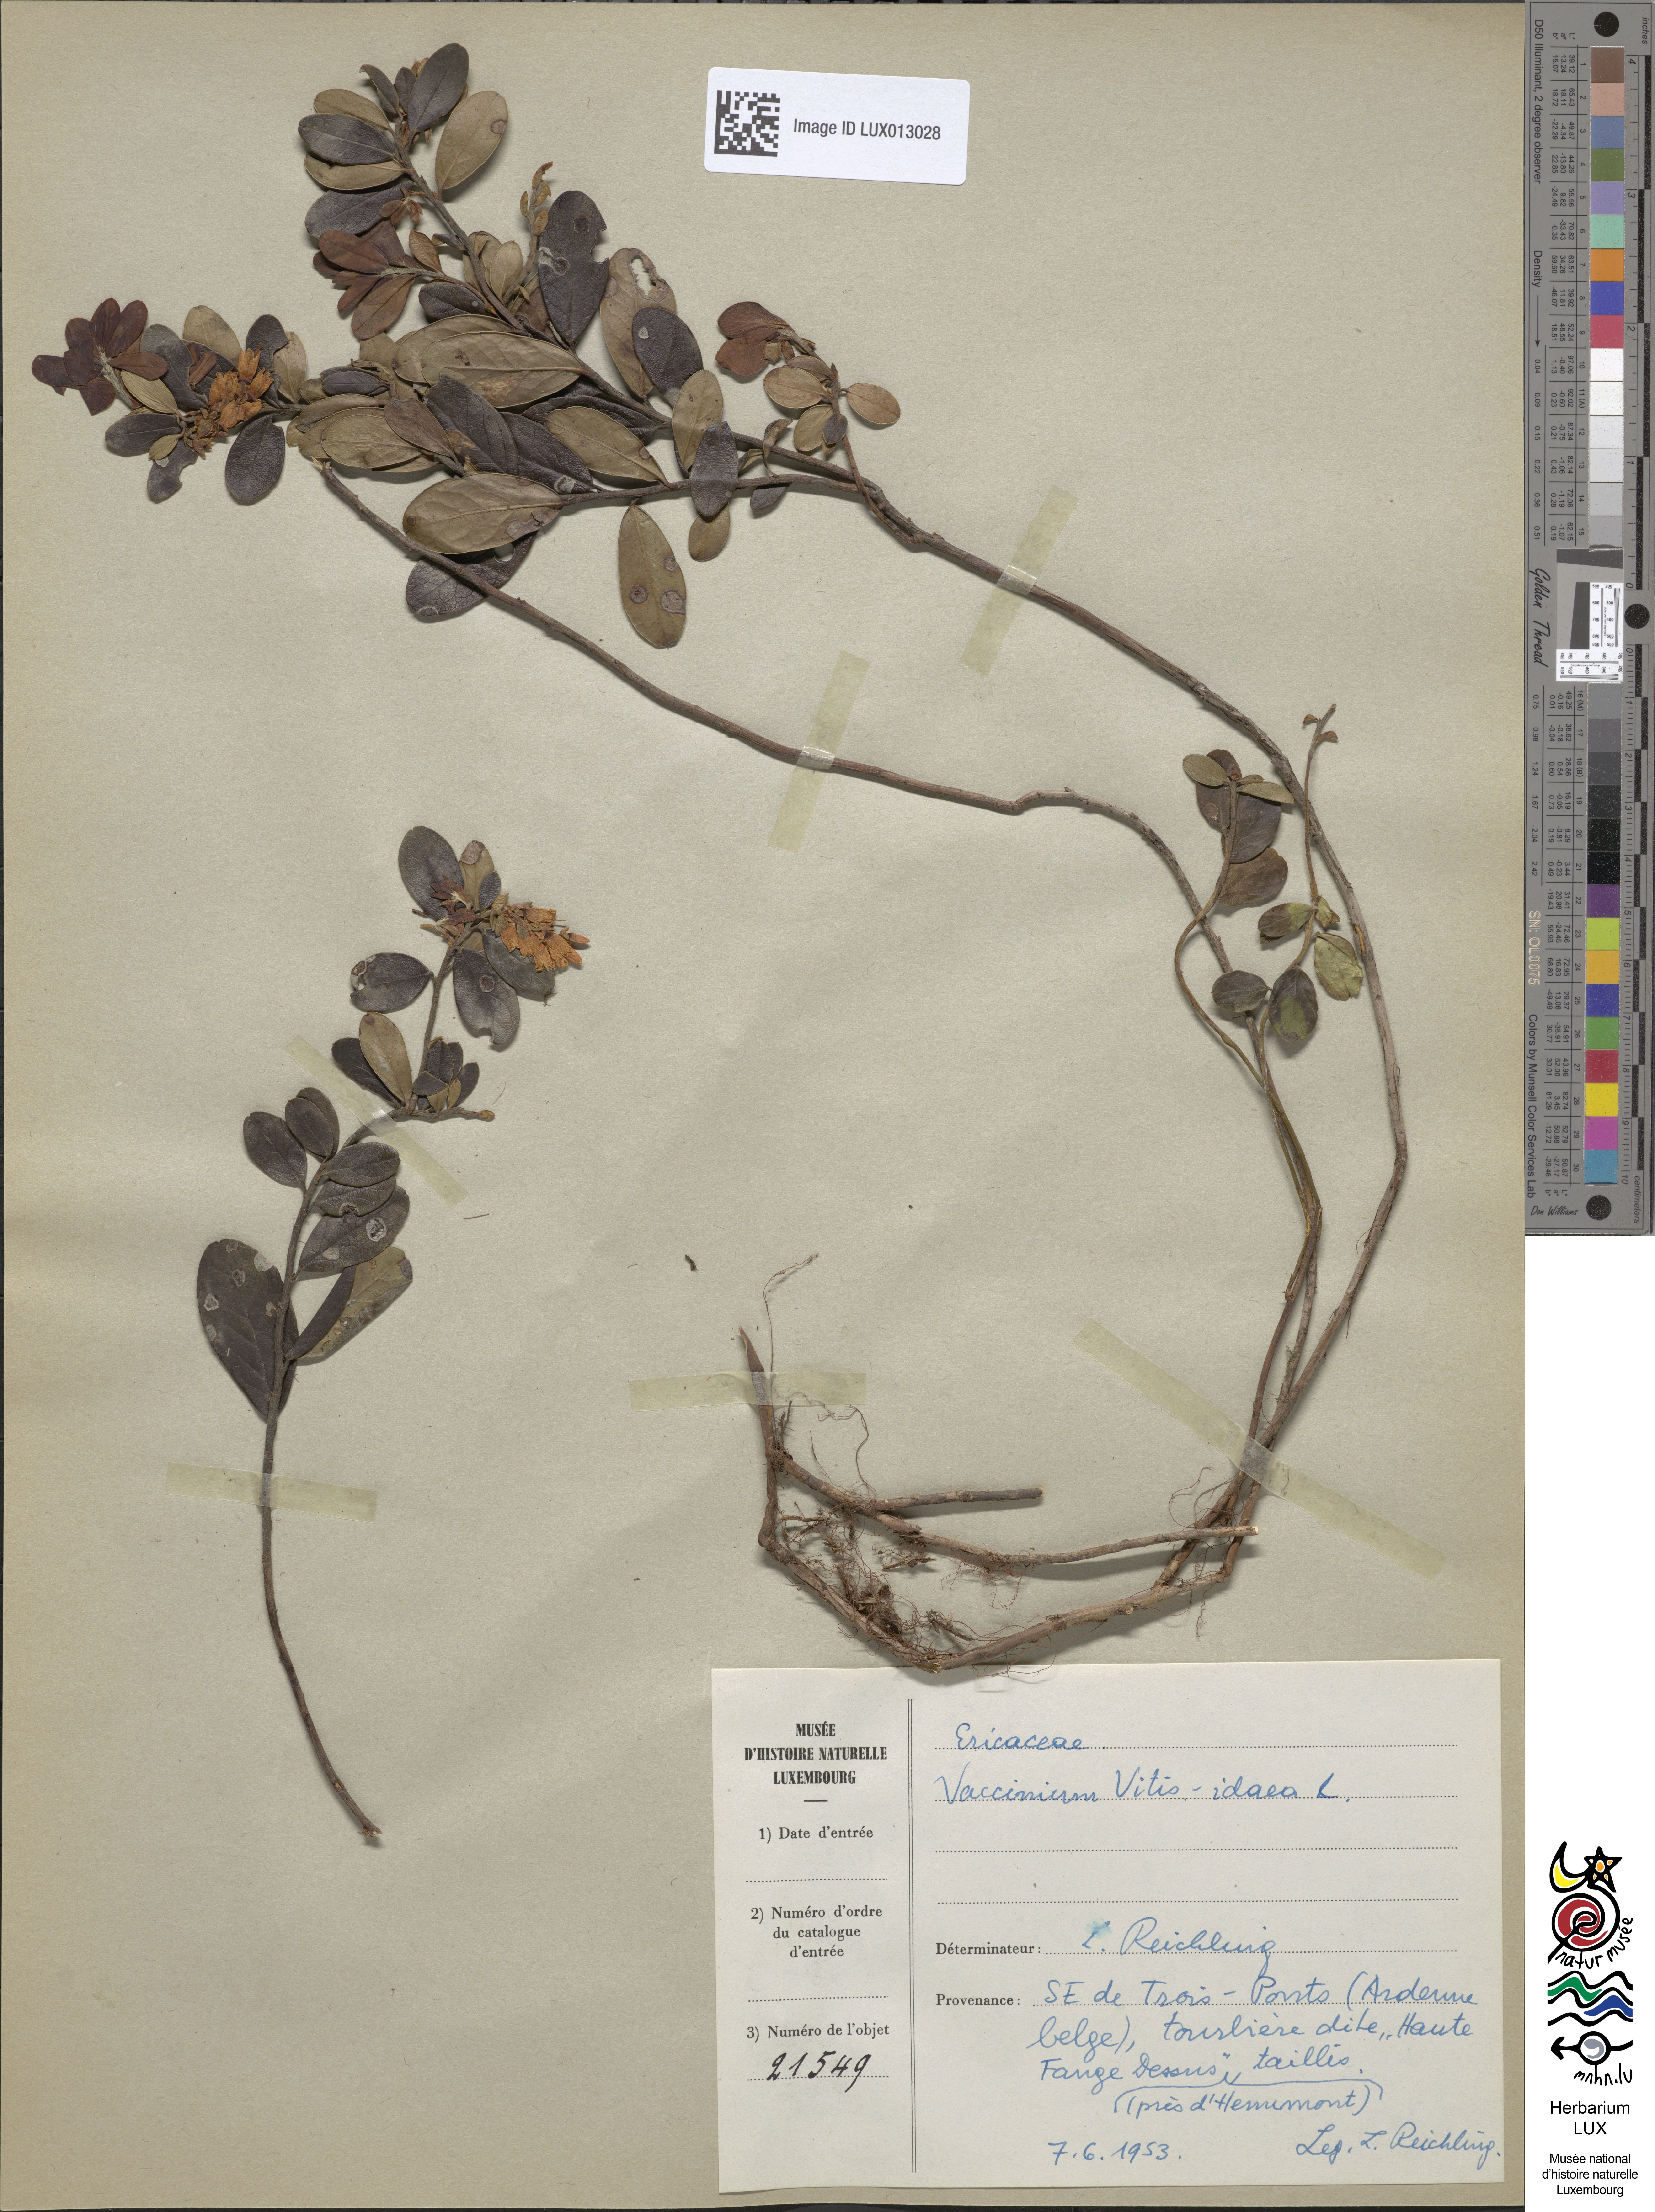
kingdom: Plantae
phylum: Tracheophyta
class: Magnoliopsida
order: Ericales
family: Ericaceae
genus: Vaccinium
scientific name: Vaccinium vitis-idaea
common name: Cowberry
